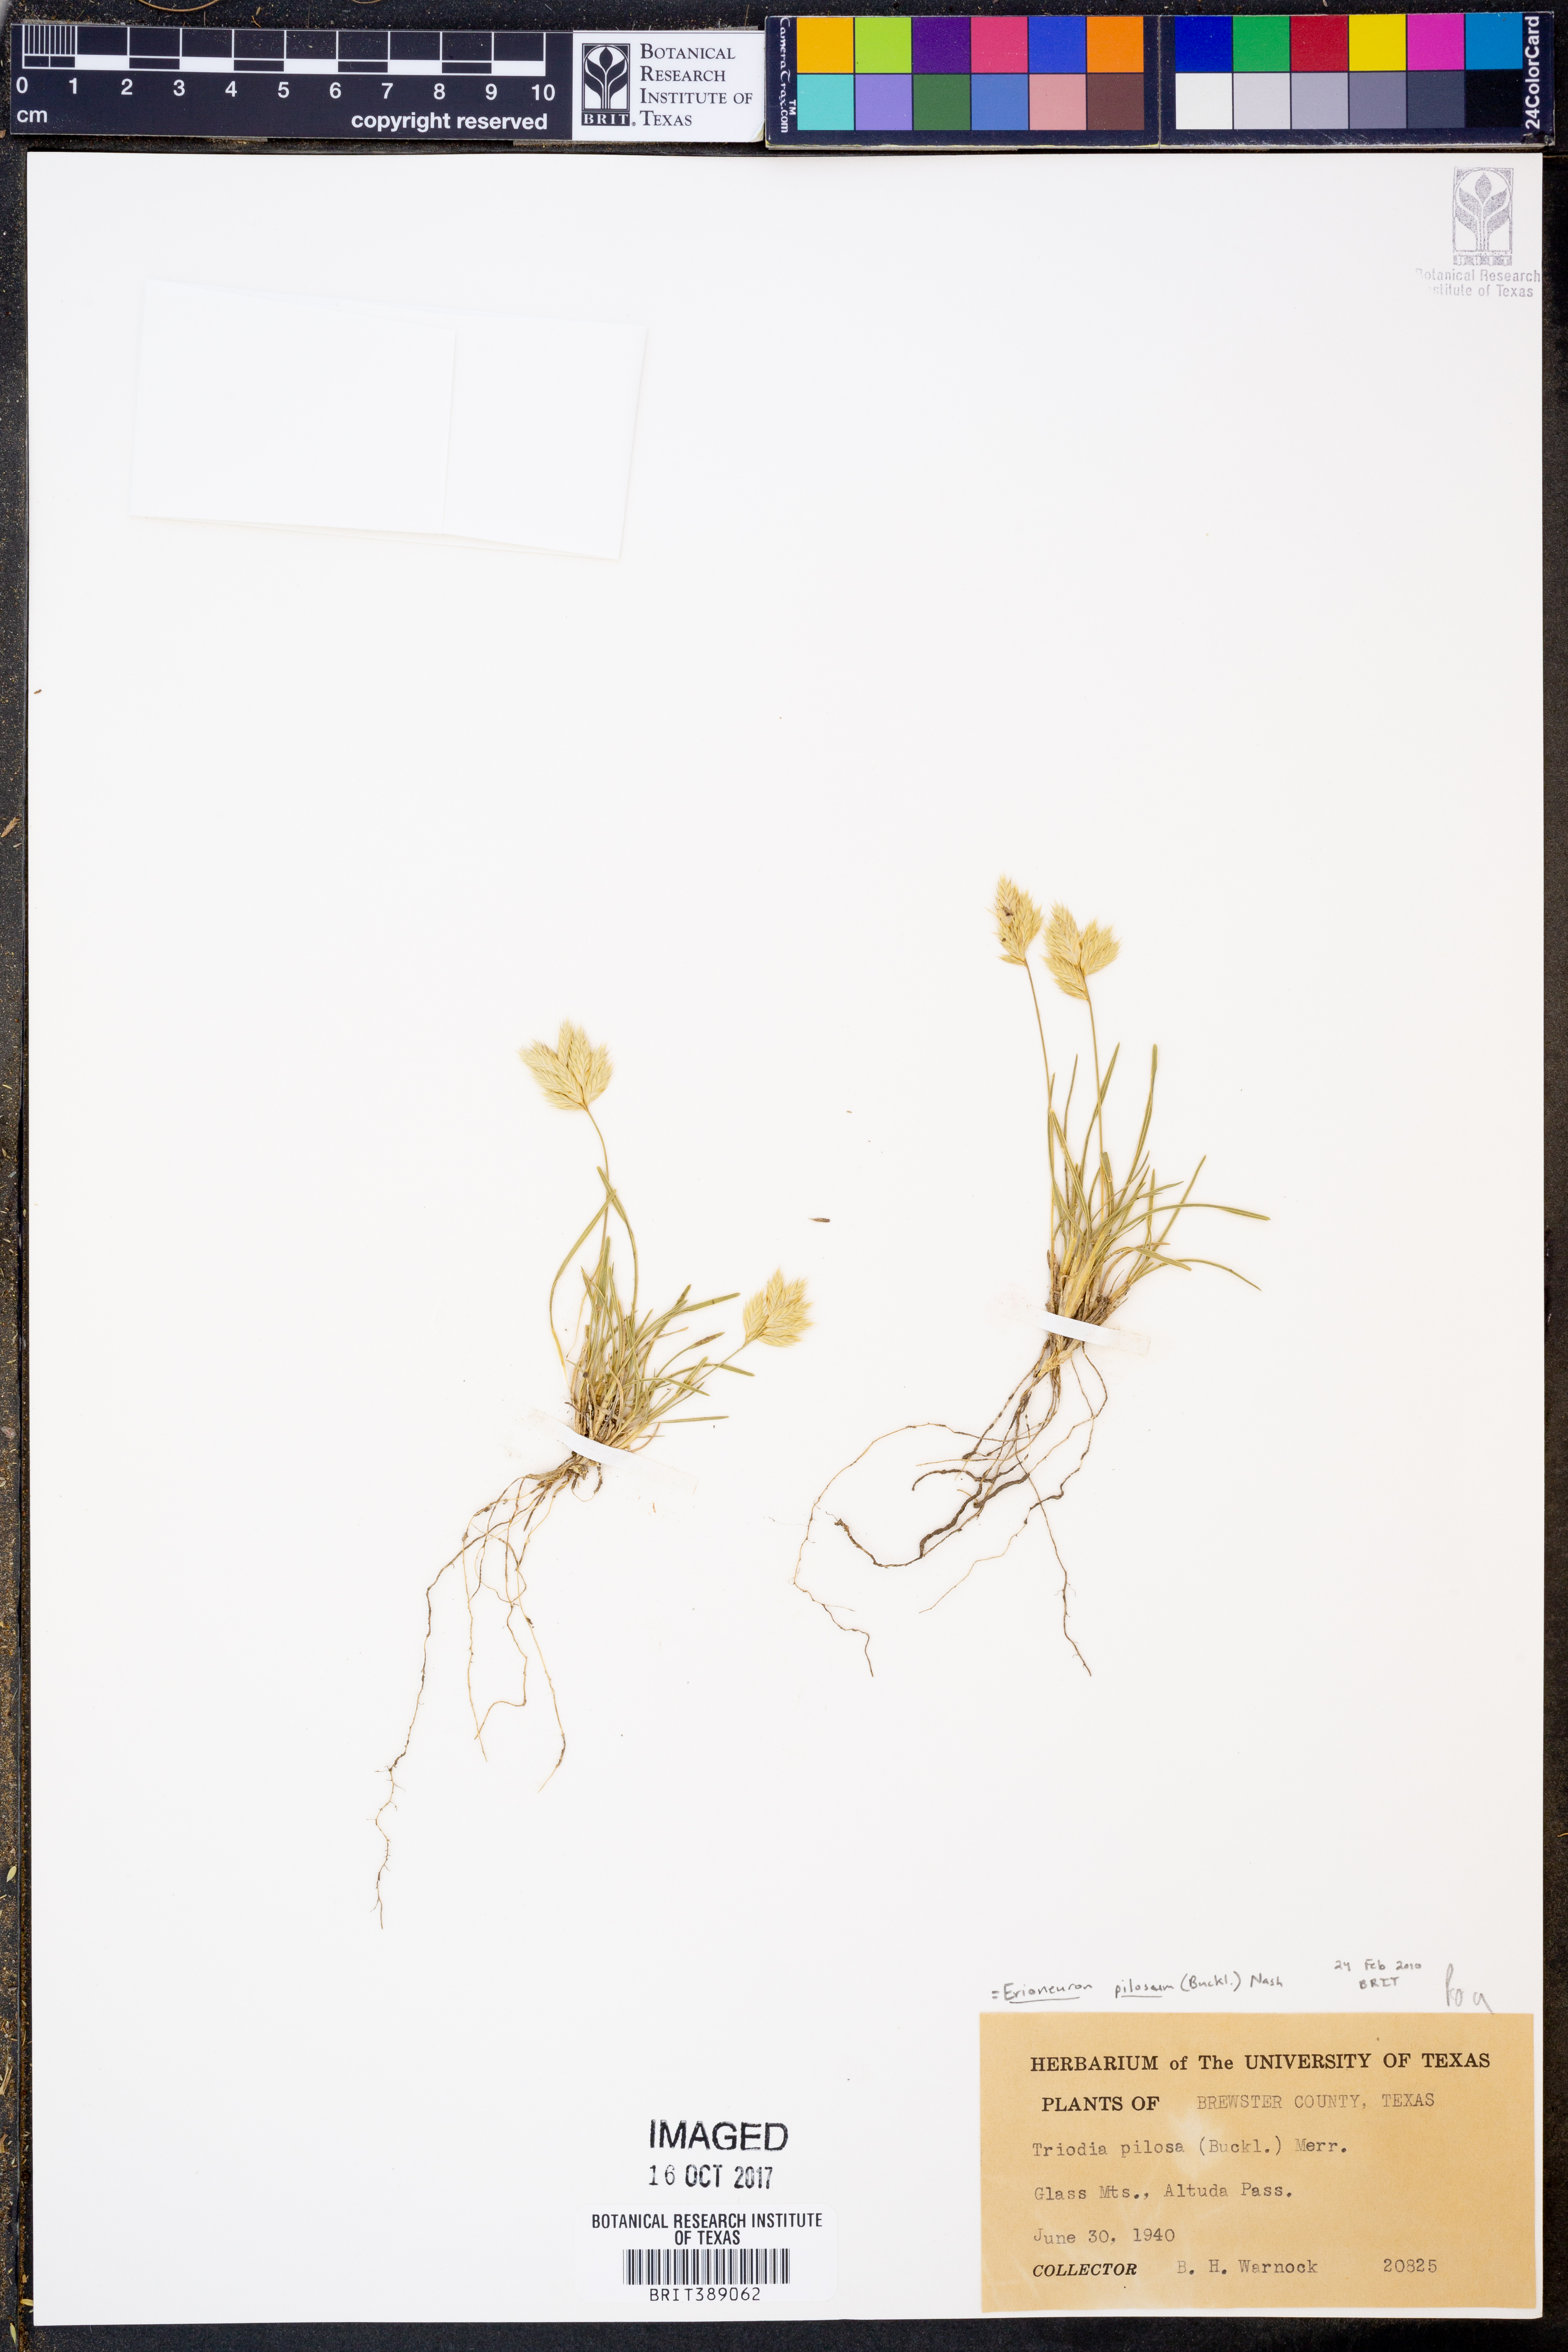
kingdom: Plantae
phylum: Tracheophyta
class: Liliopsida
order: Poales
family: Poaceae
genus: Erioneuron
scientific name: Erioneuron pilosum
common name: Hairy woolly grass
